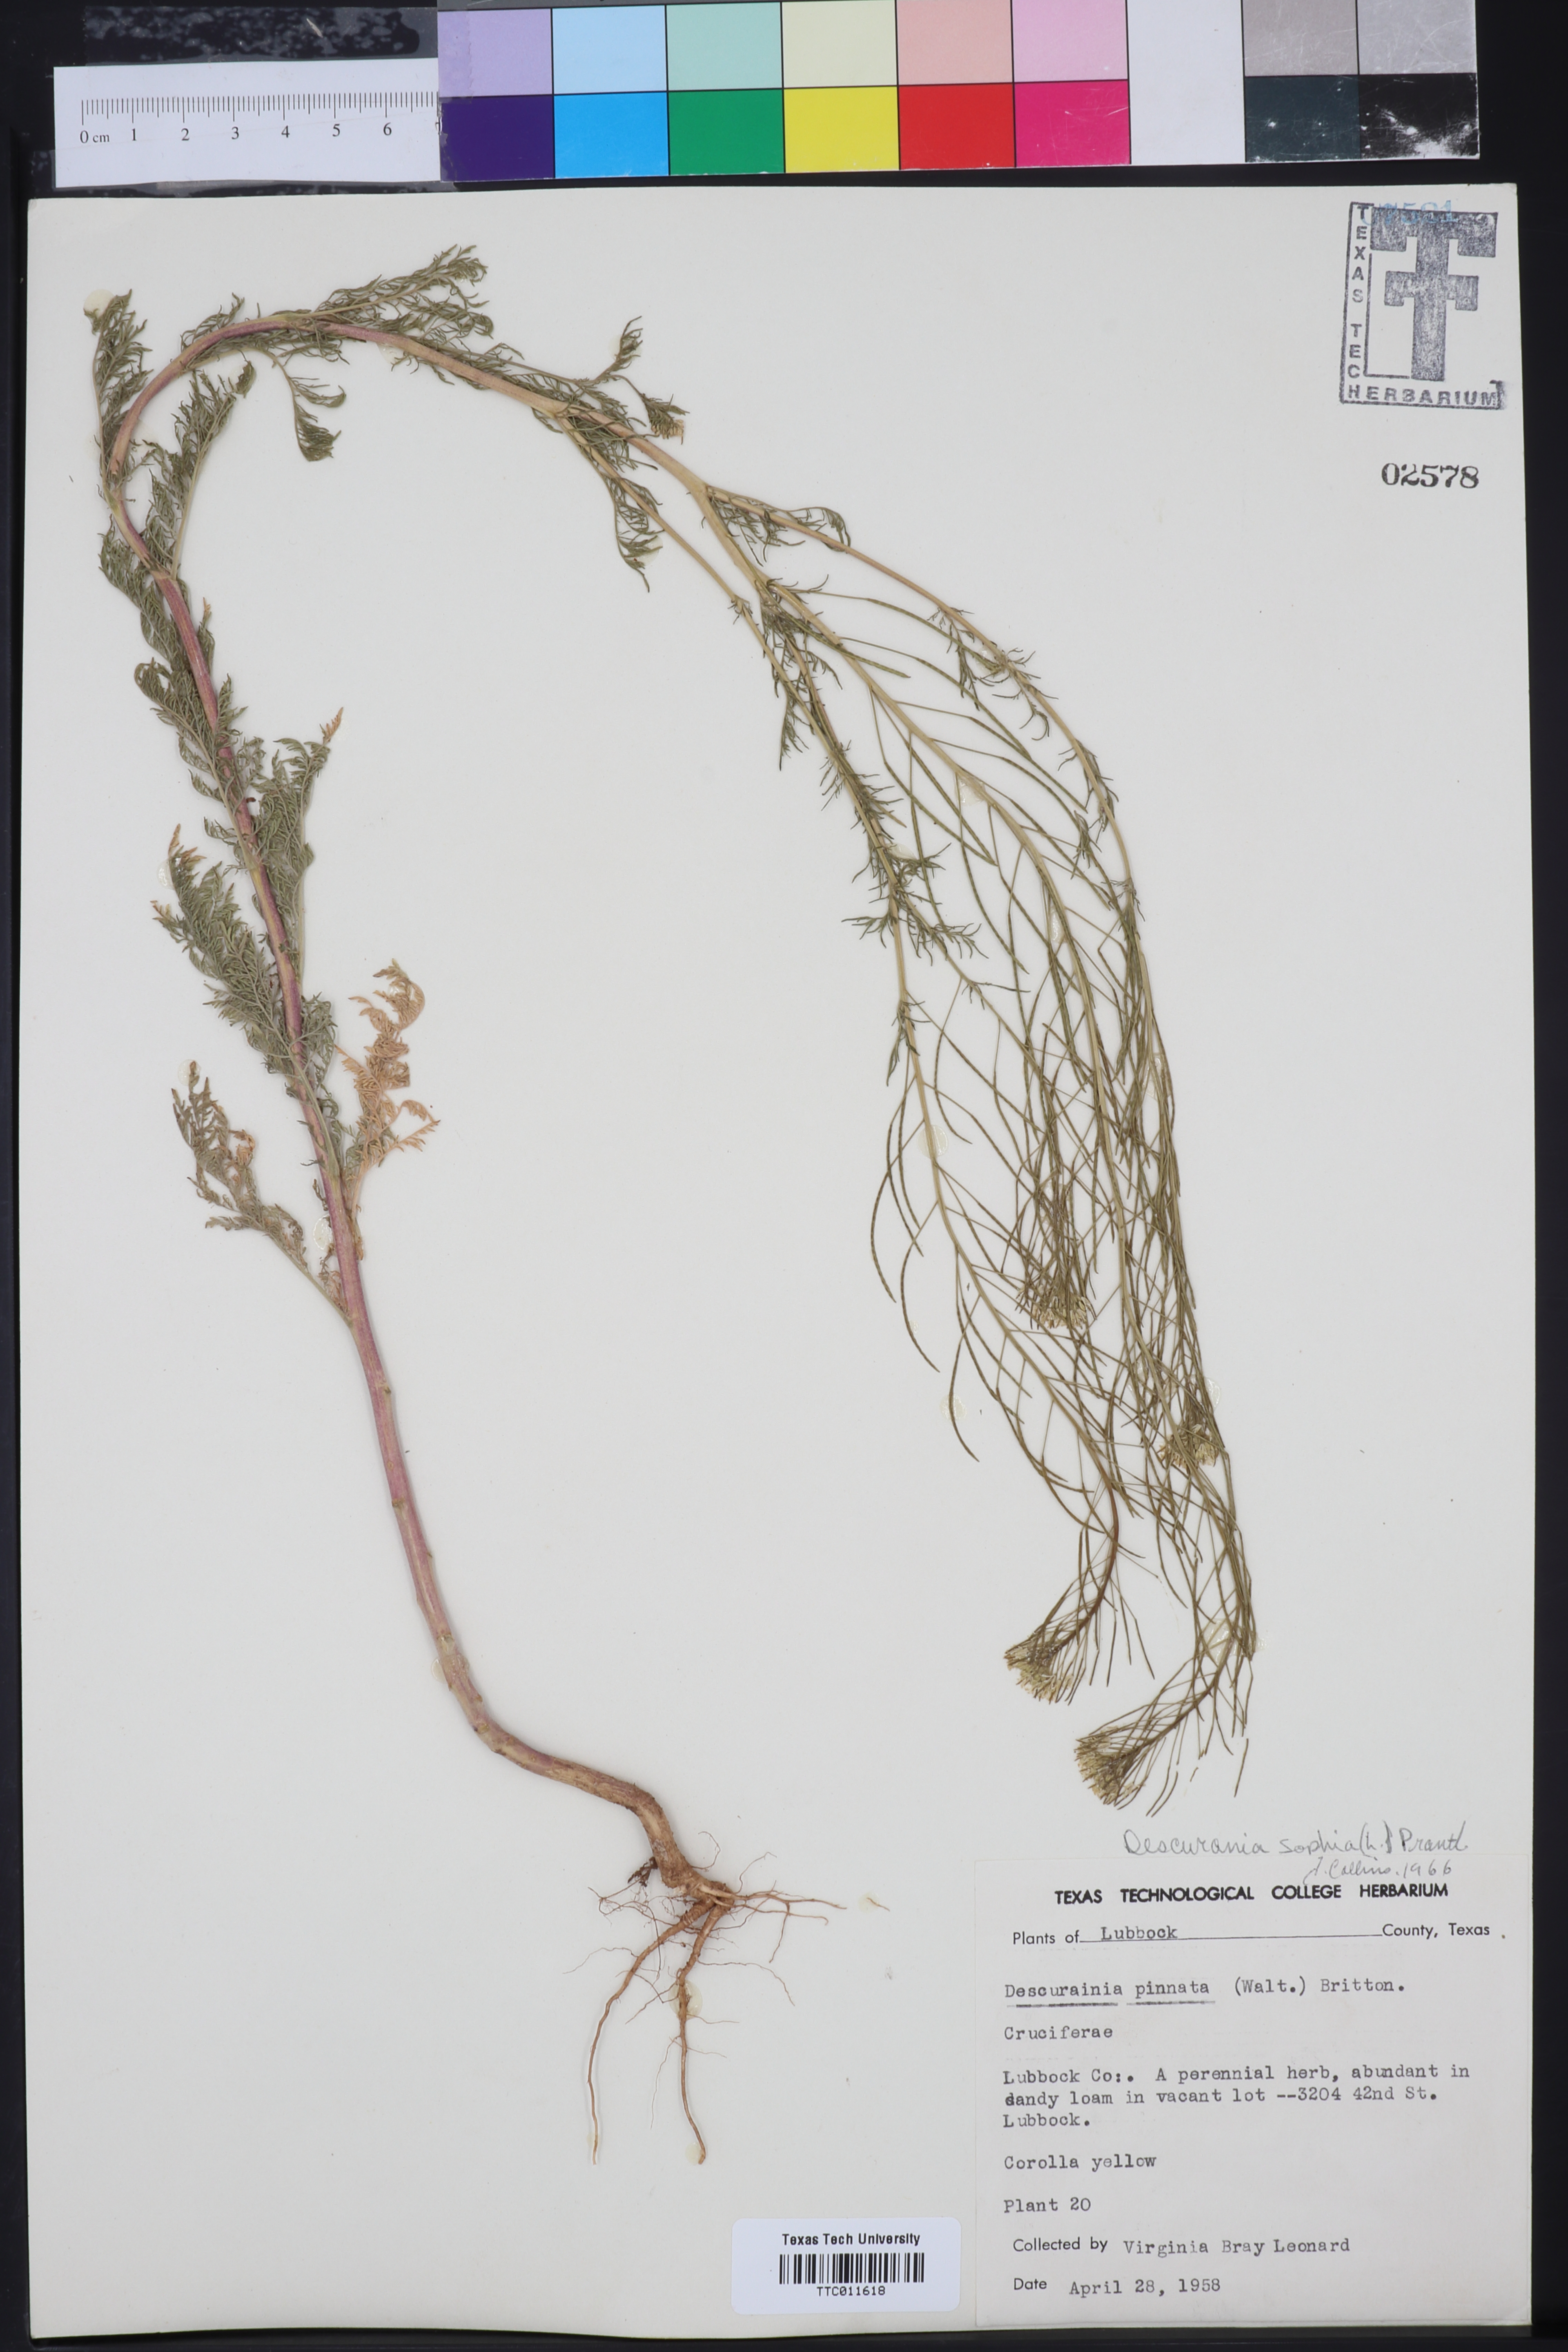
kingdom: Plantae
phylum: Tracheophyta
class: Magnoliopsida
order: Brassicales
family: Brassicaceae
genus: Descurainia
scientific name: Descurainia sophia
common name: Flixweed
